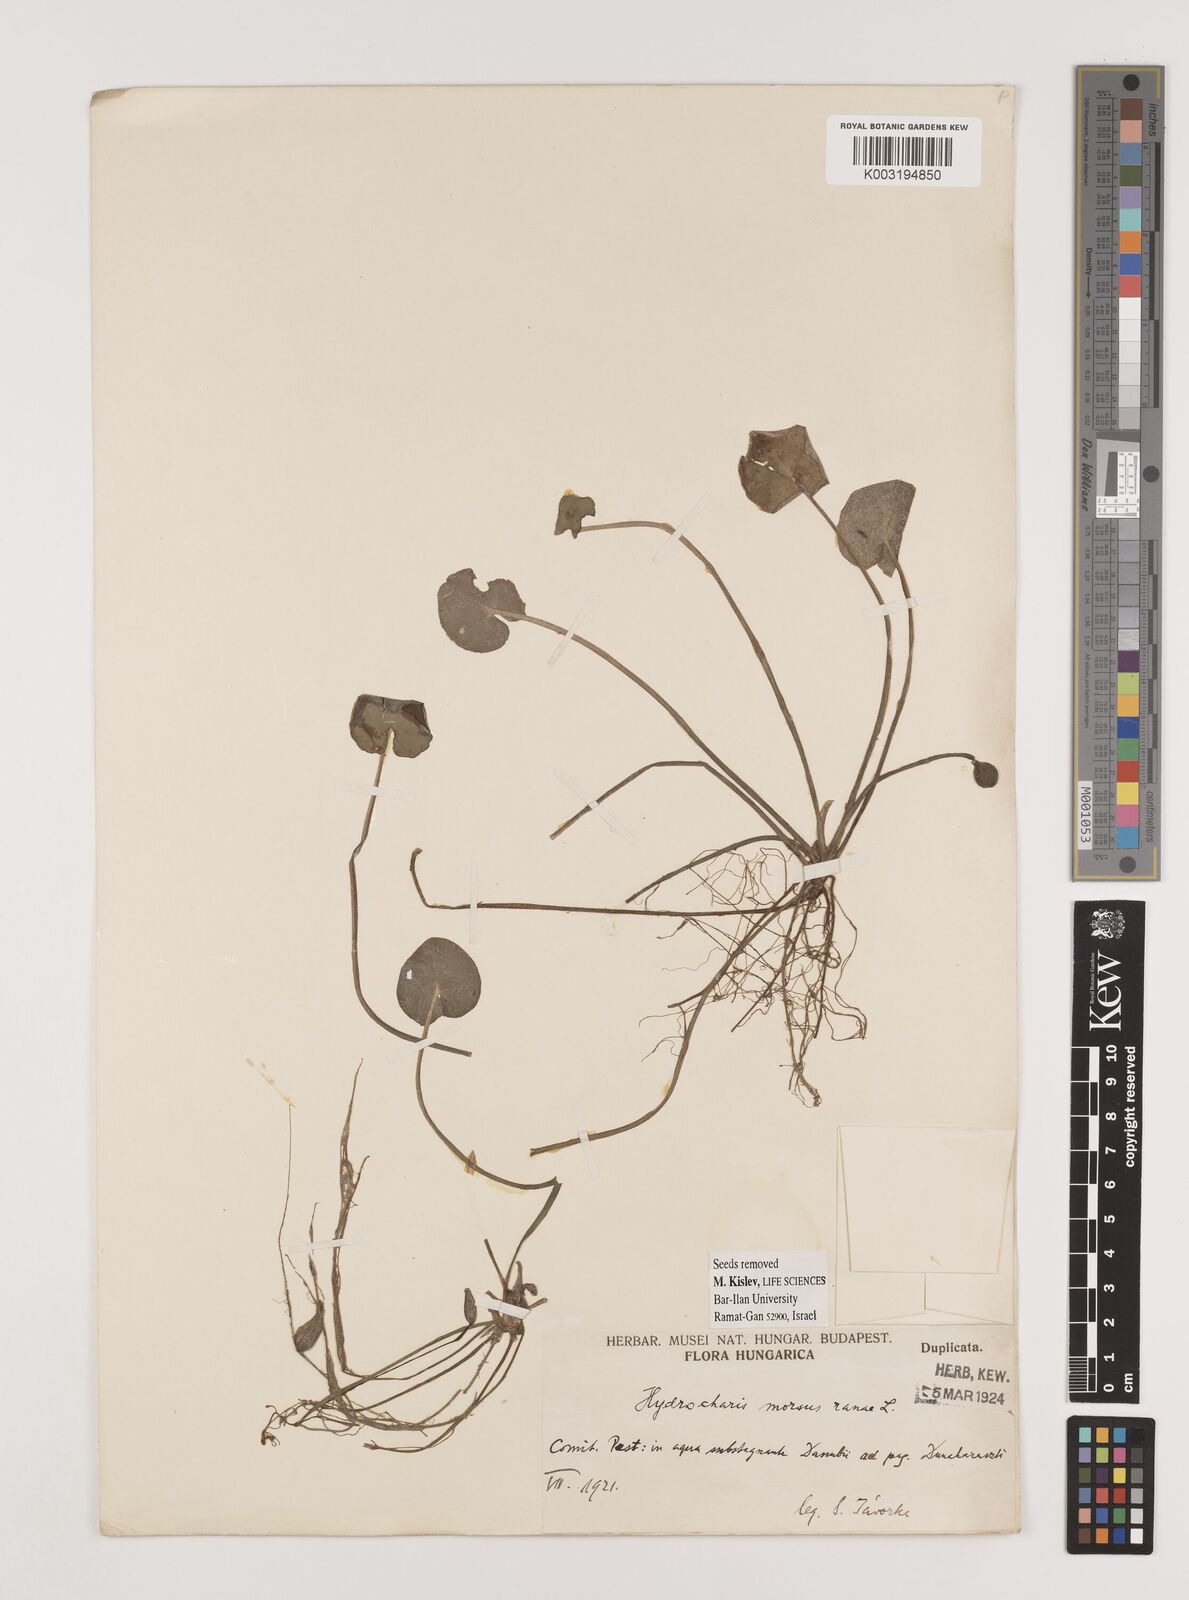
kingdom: Plantae
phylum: Tracheophyta
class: Liliopsida
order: Alismatales
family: Hydrocharitaceae
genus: Hydrocharis
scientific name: Hydrocharis morsus-ranae
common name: Frogbit
